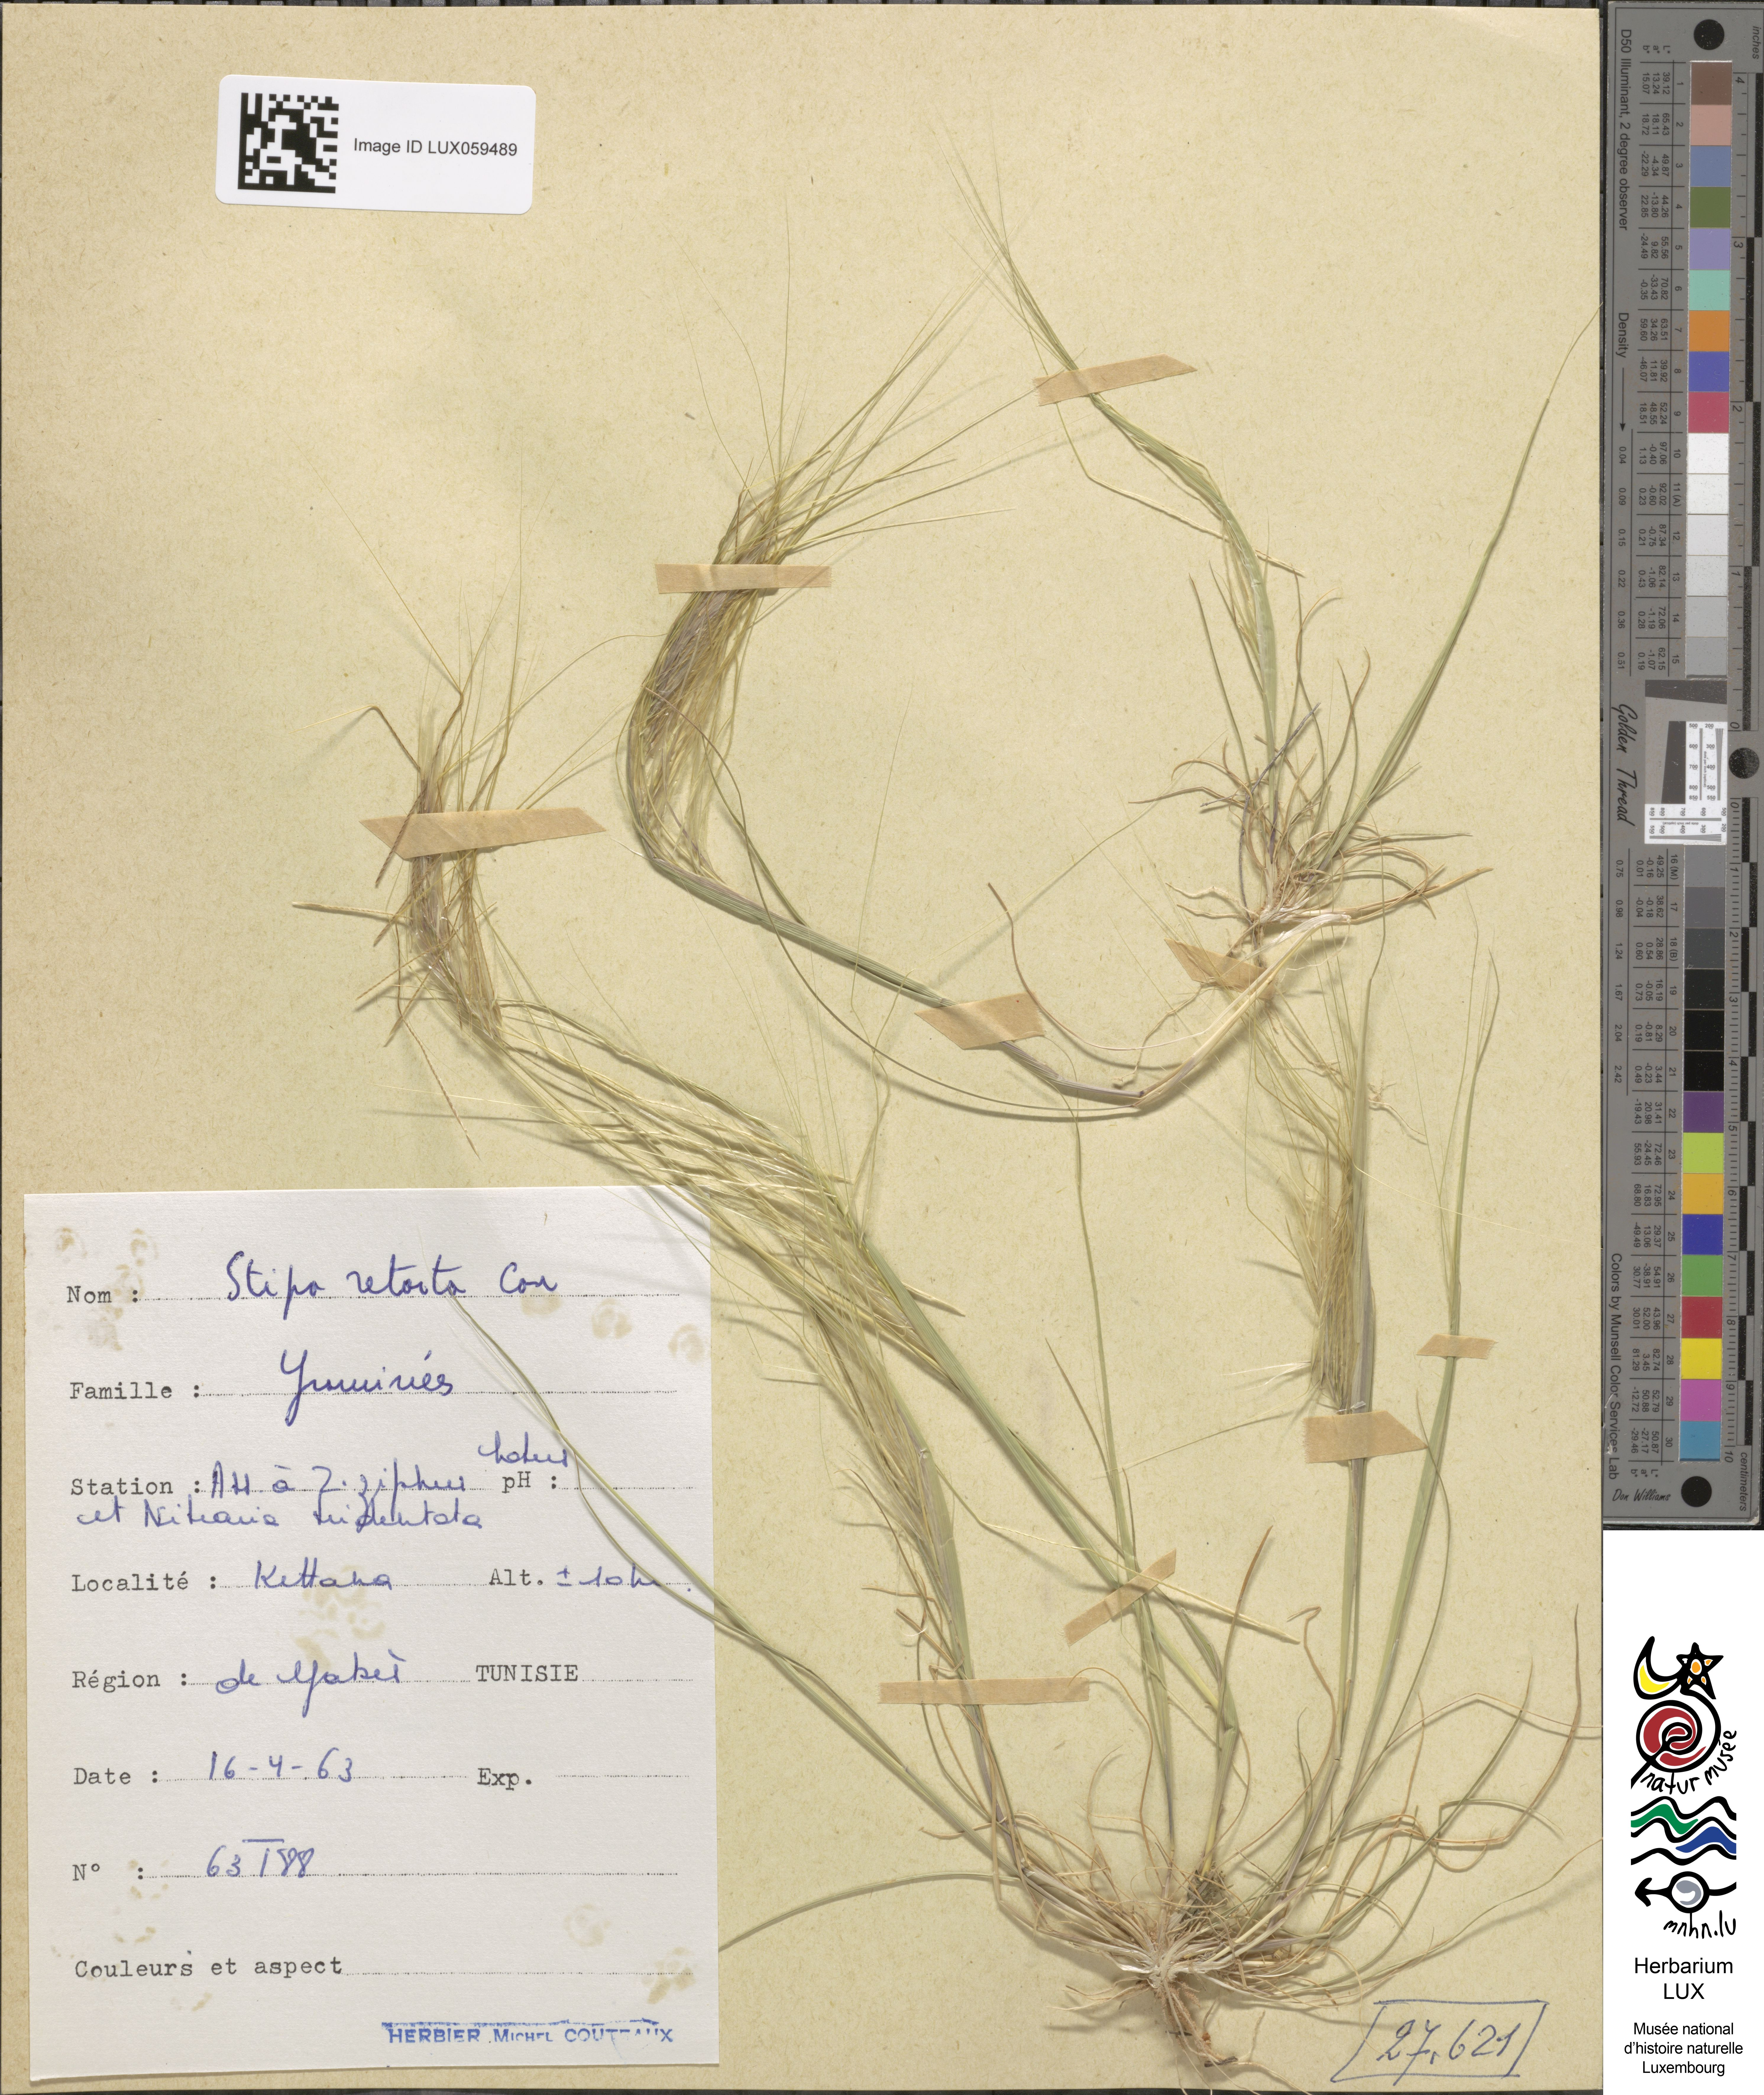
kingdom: Plantae
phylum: Tracheophyta
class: Liliopsida
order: Poales
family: Poaceae
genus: Stipellula
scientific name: Stipellula capensis
